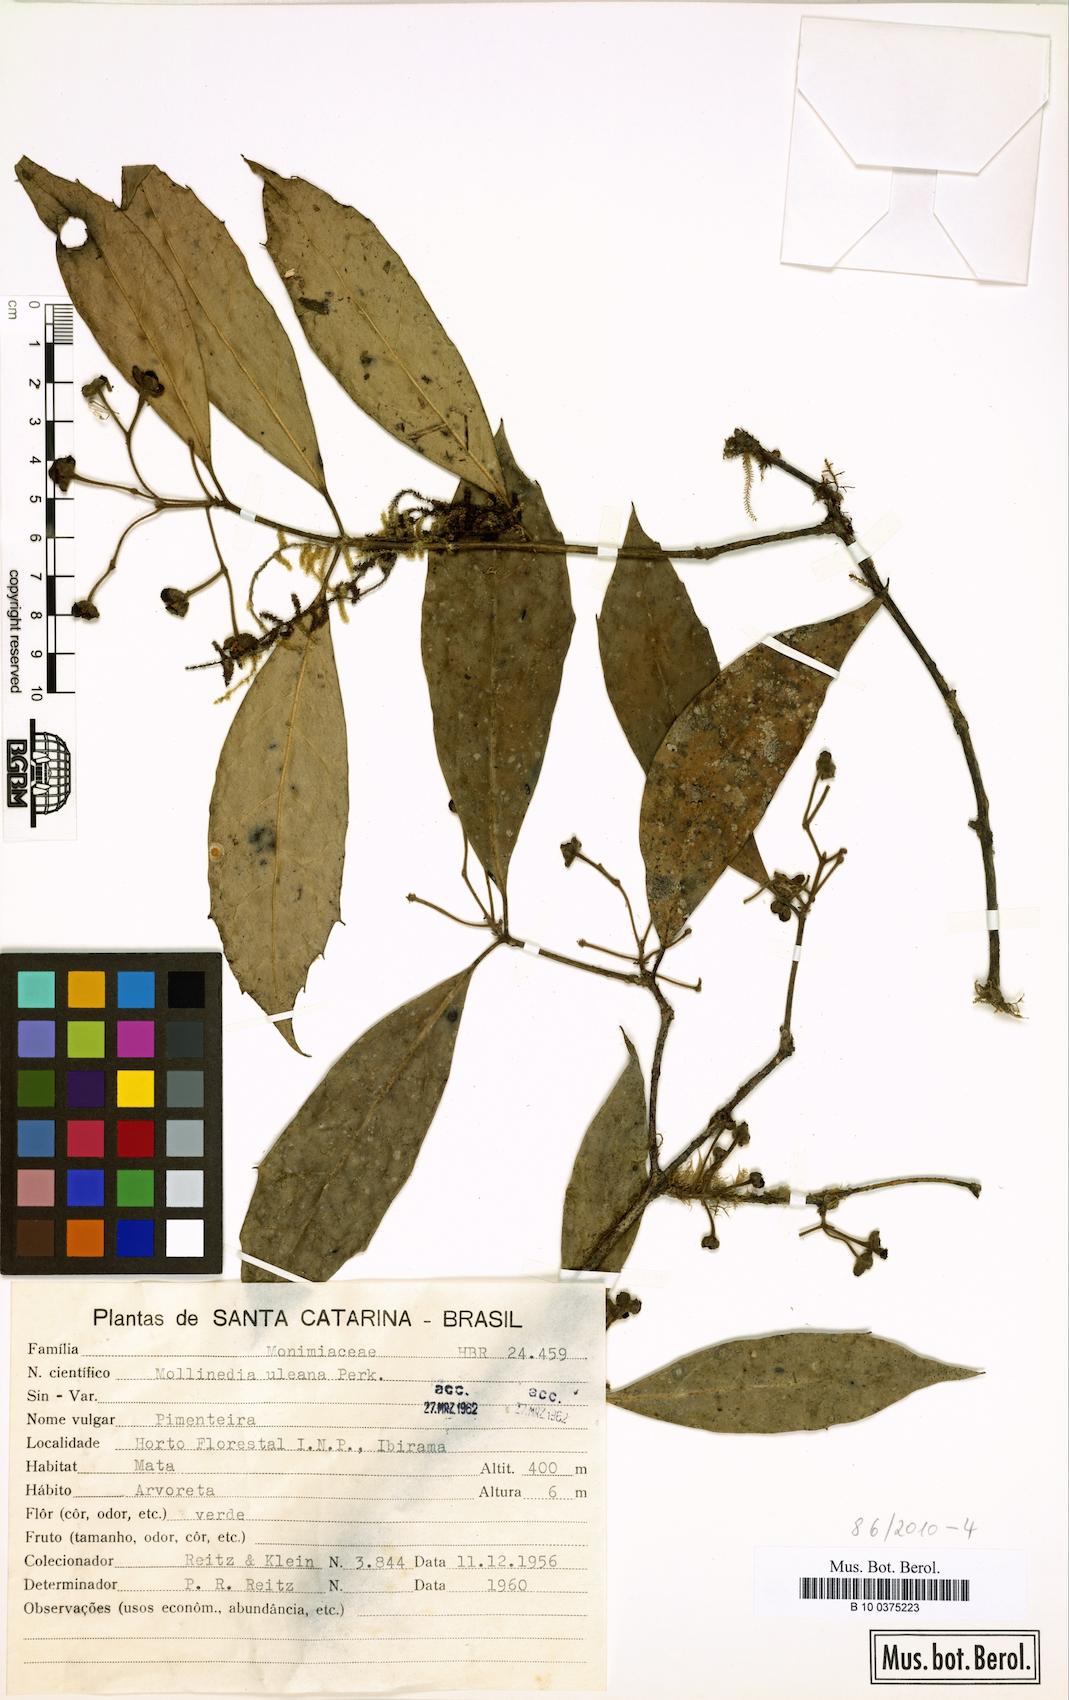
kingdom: Plantae
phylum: Tracheophyta
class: Magnoliopsida
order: Laurales
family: Monimiaceae
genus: Mollinedia
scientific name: Mollinedia uleana
